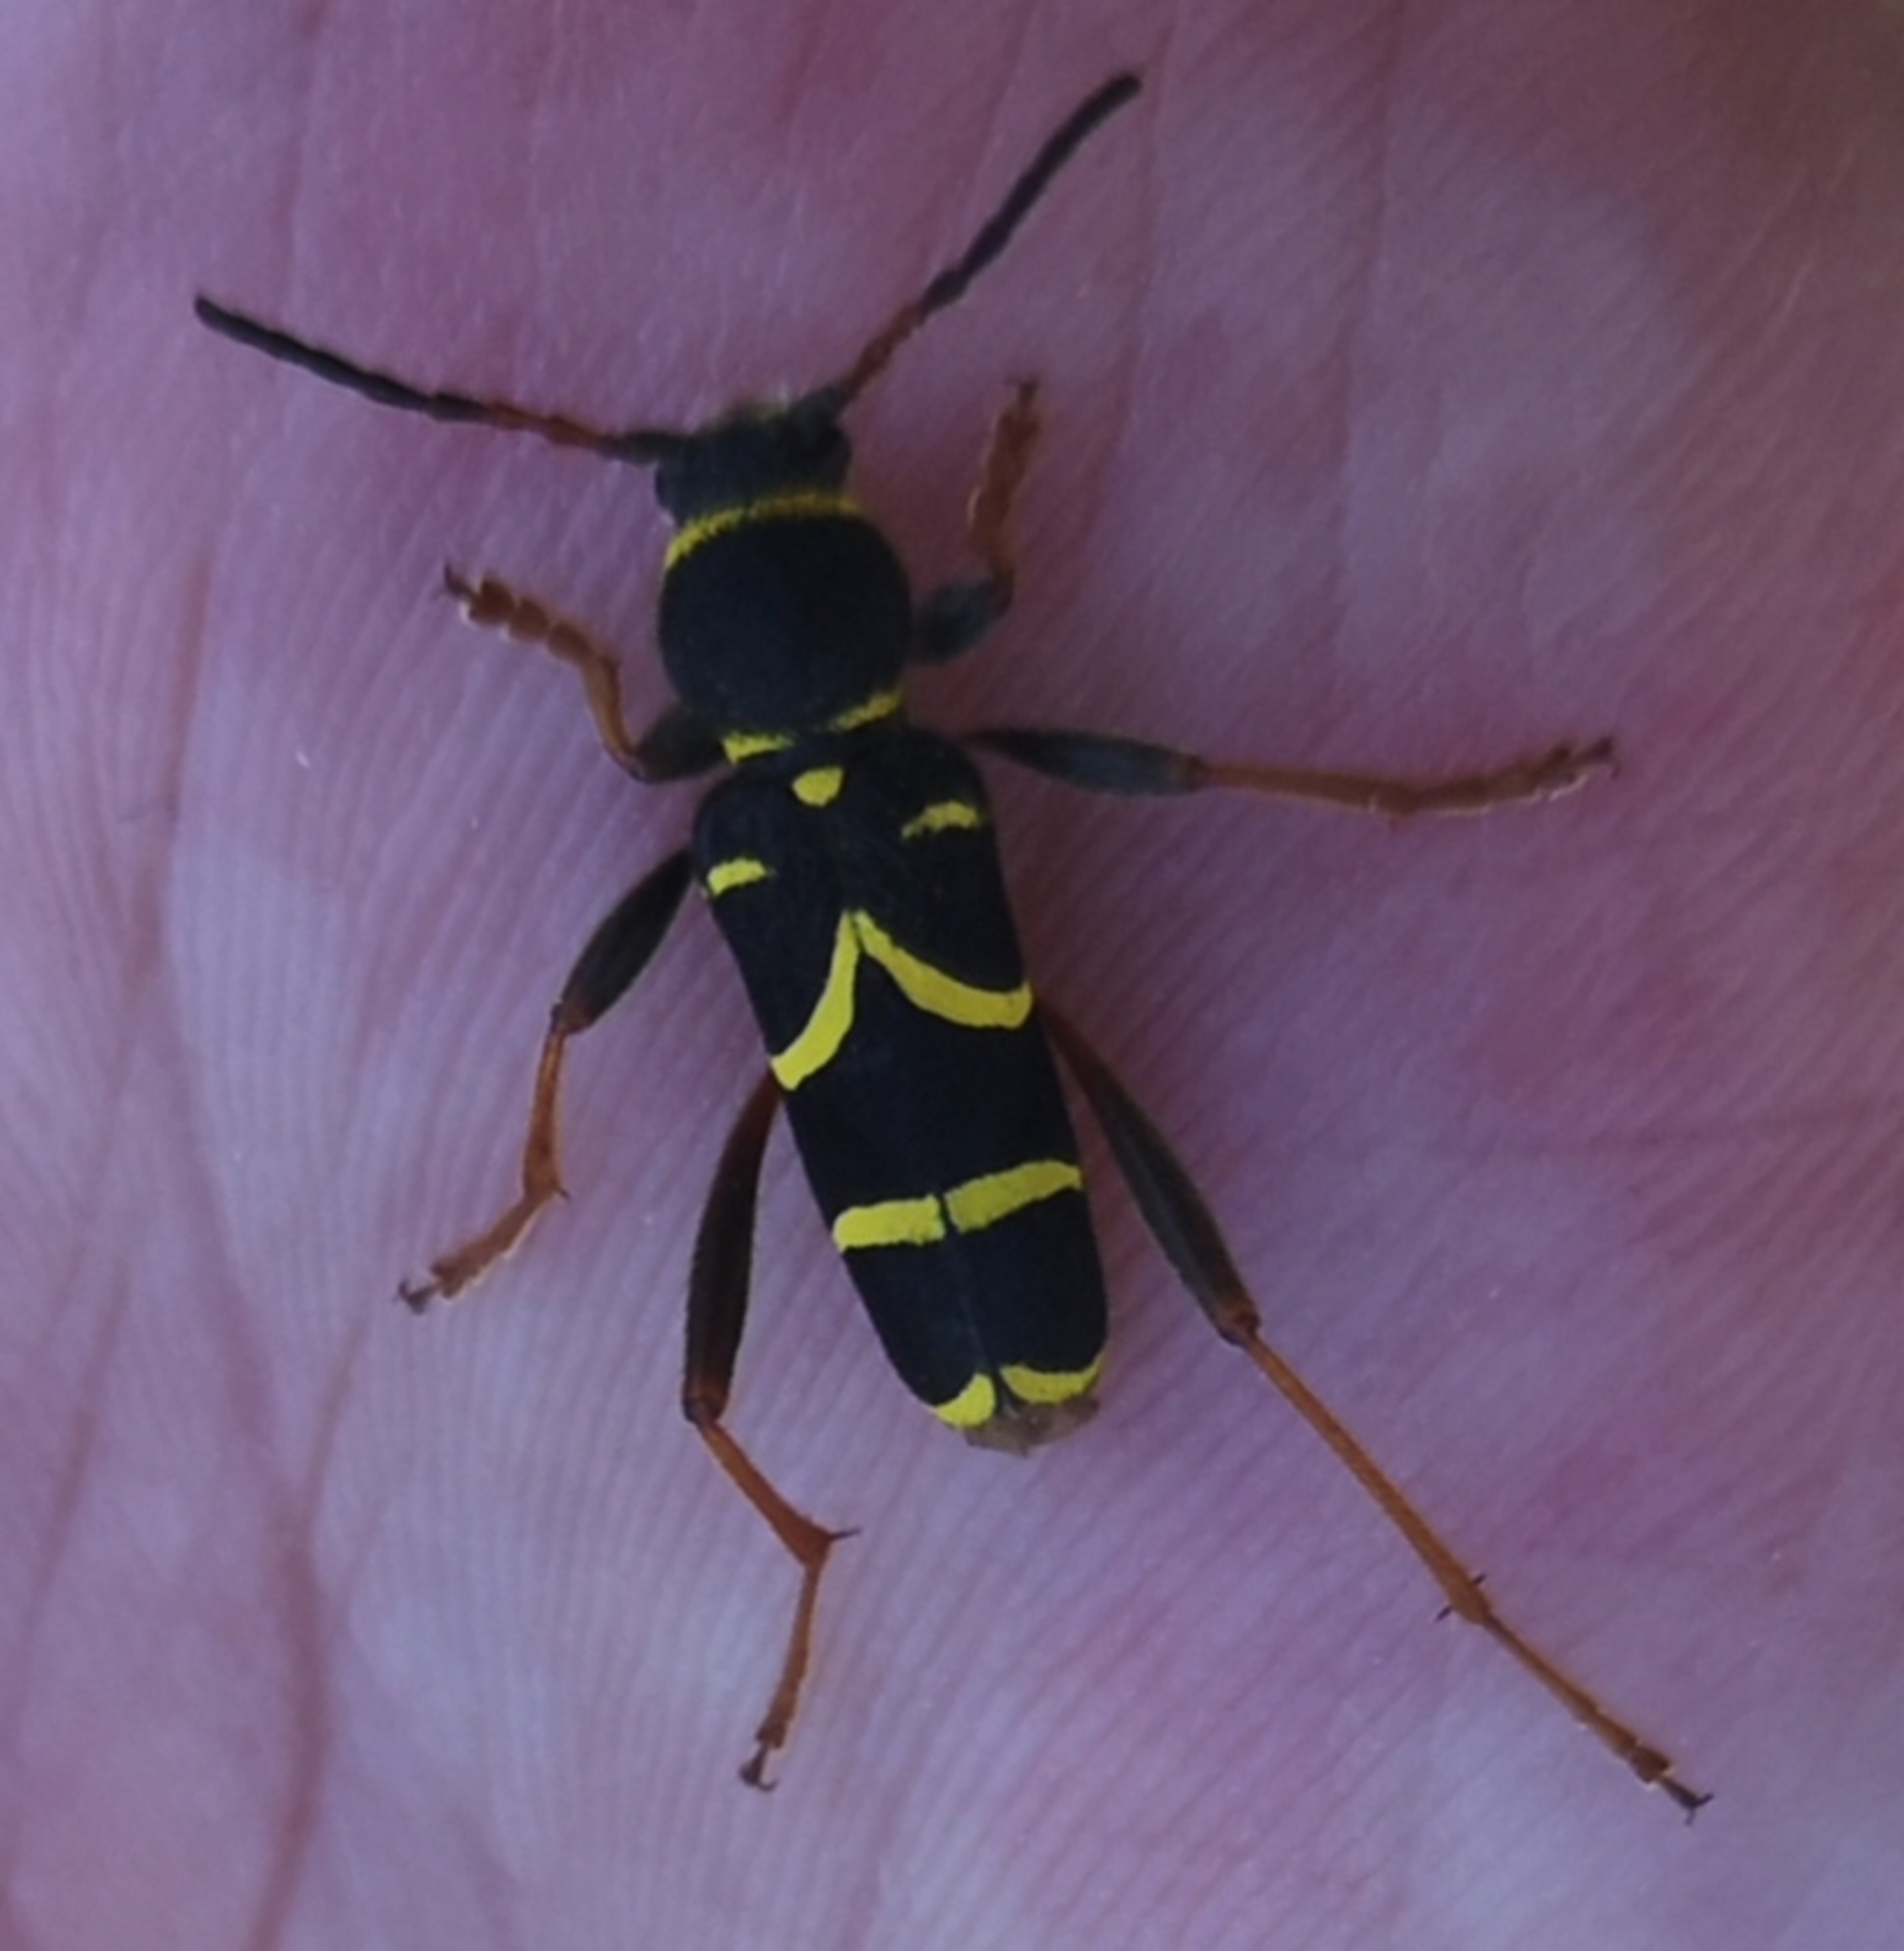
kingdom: Animalia
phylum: Arthropoda
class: Insecta
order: Coleoptera
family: Cerambycidae
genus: Clytus
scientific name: Clytus arietis
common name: Lille hvepsebuk
